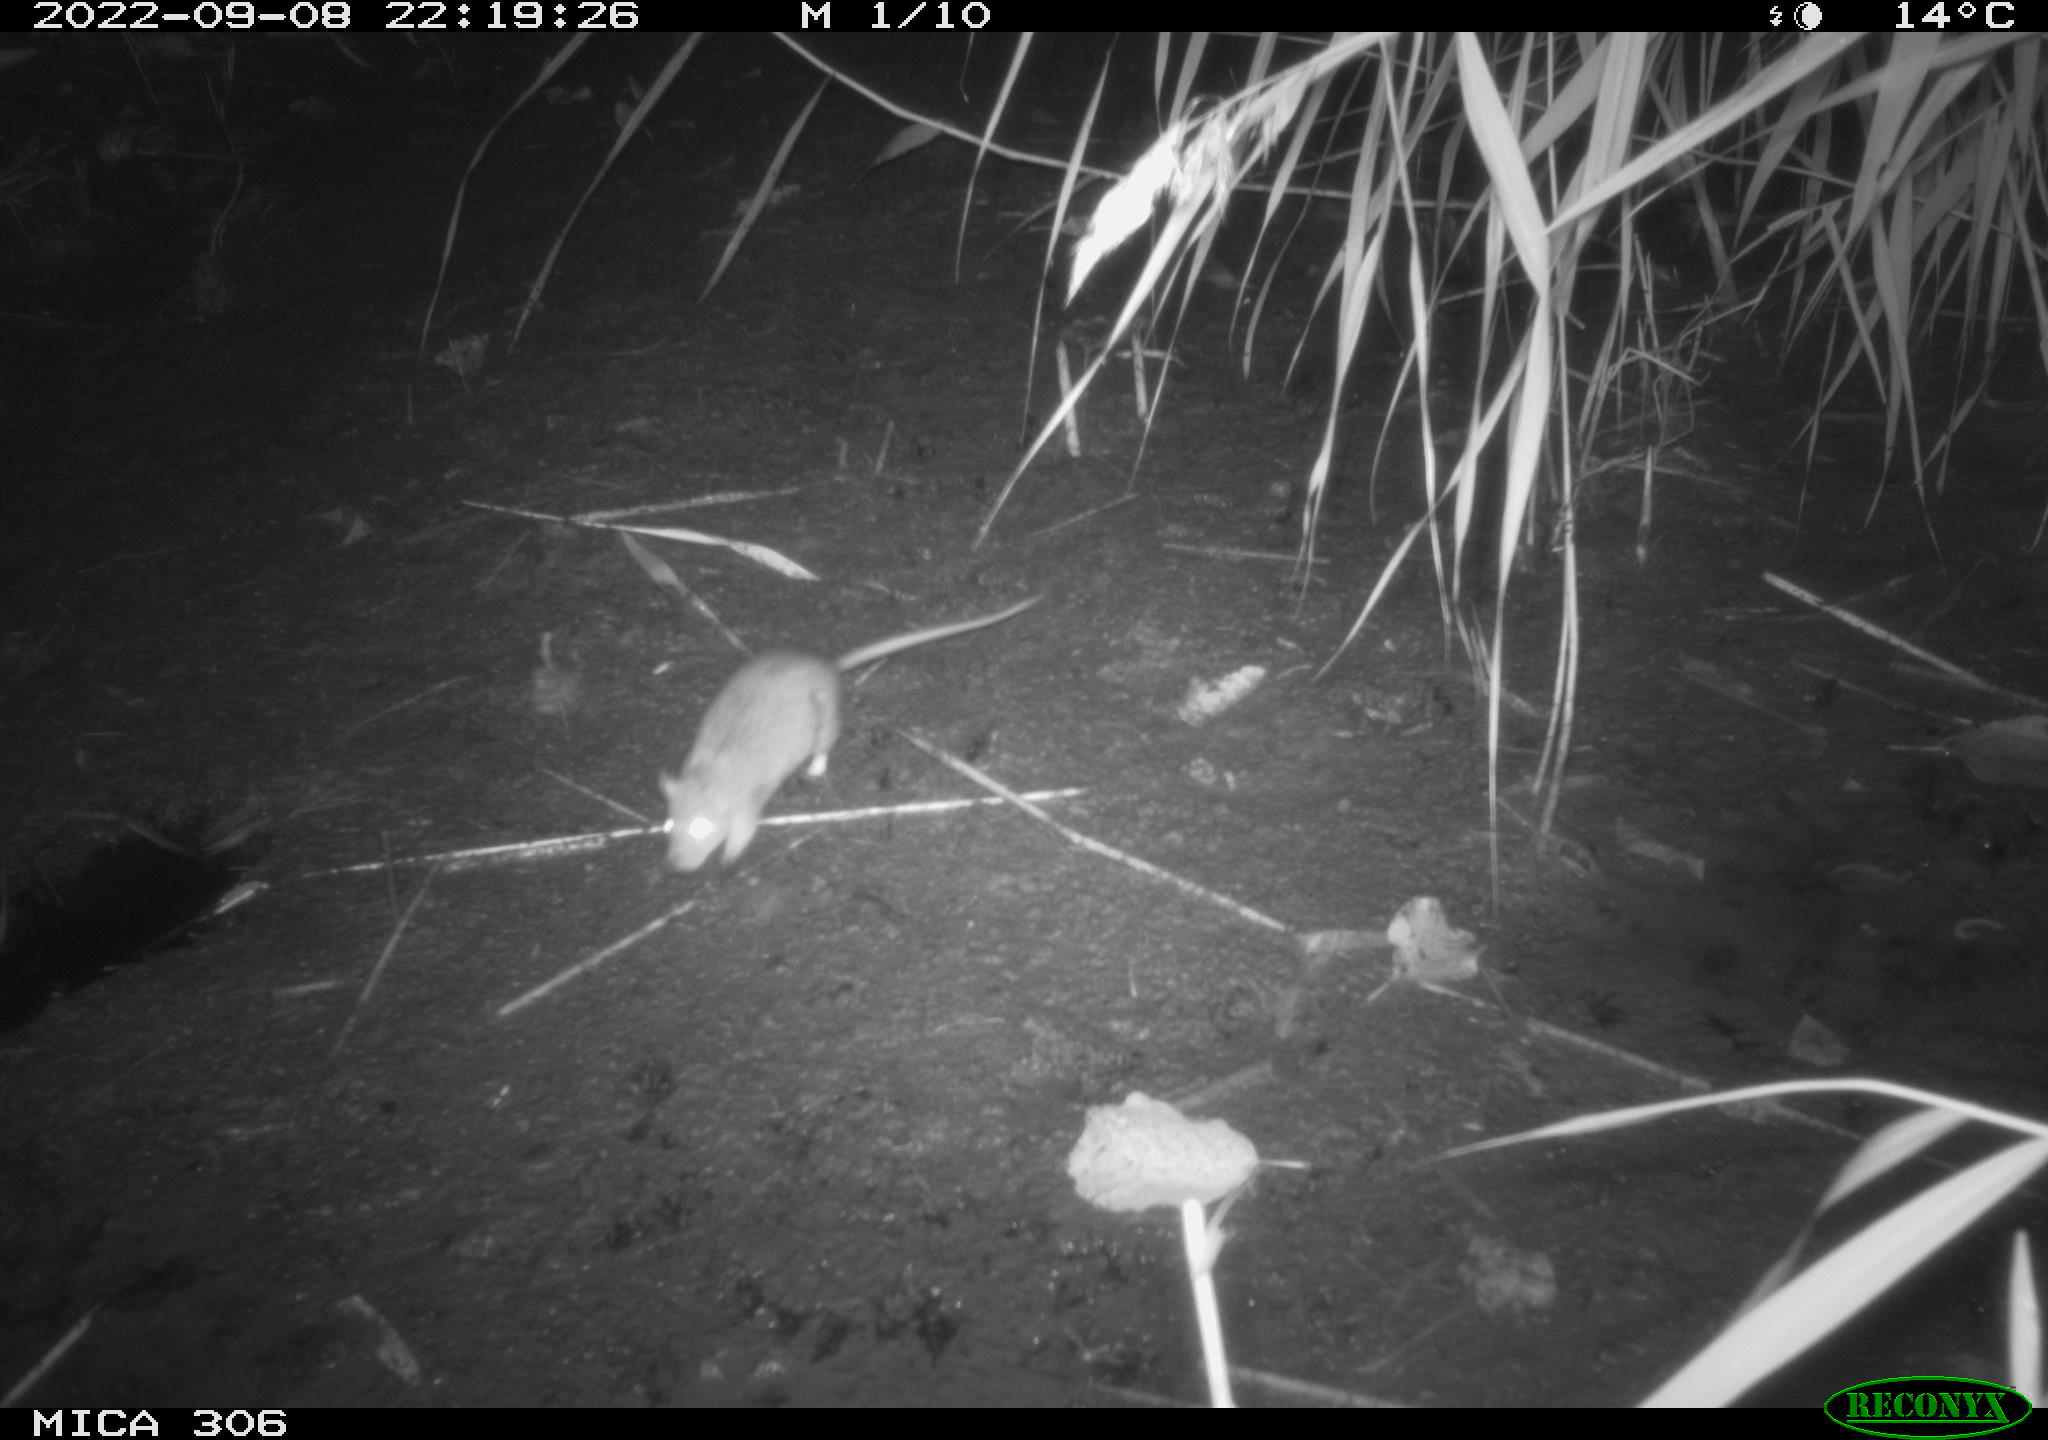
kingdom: Animalia
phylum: Chordata
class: Mammalia
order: Rodentia
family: Muridae
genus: Rattus
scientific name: Rattus norvegicus
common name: Brown rat
